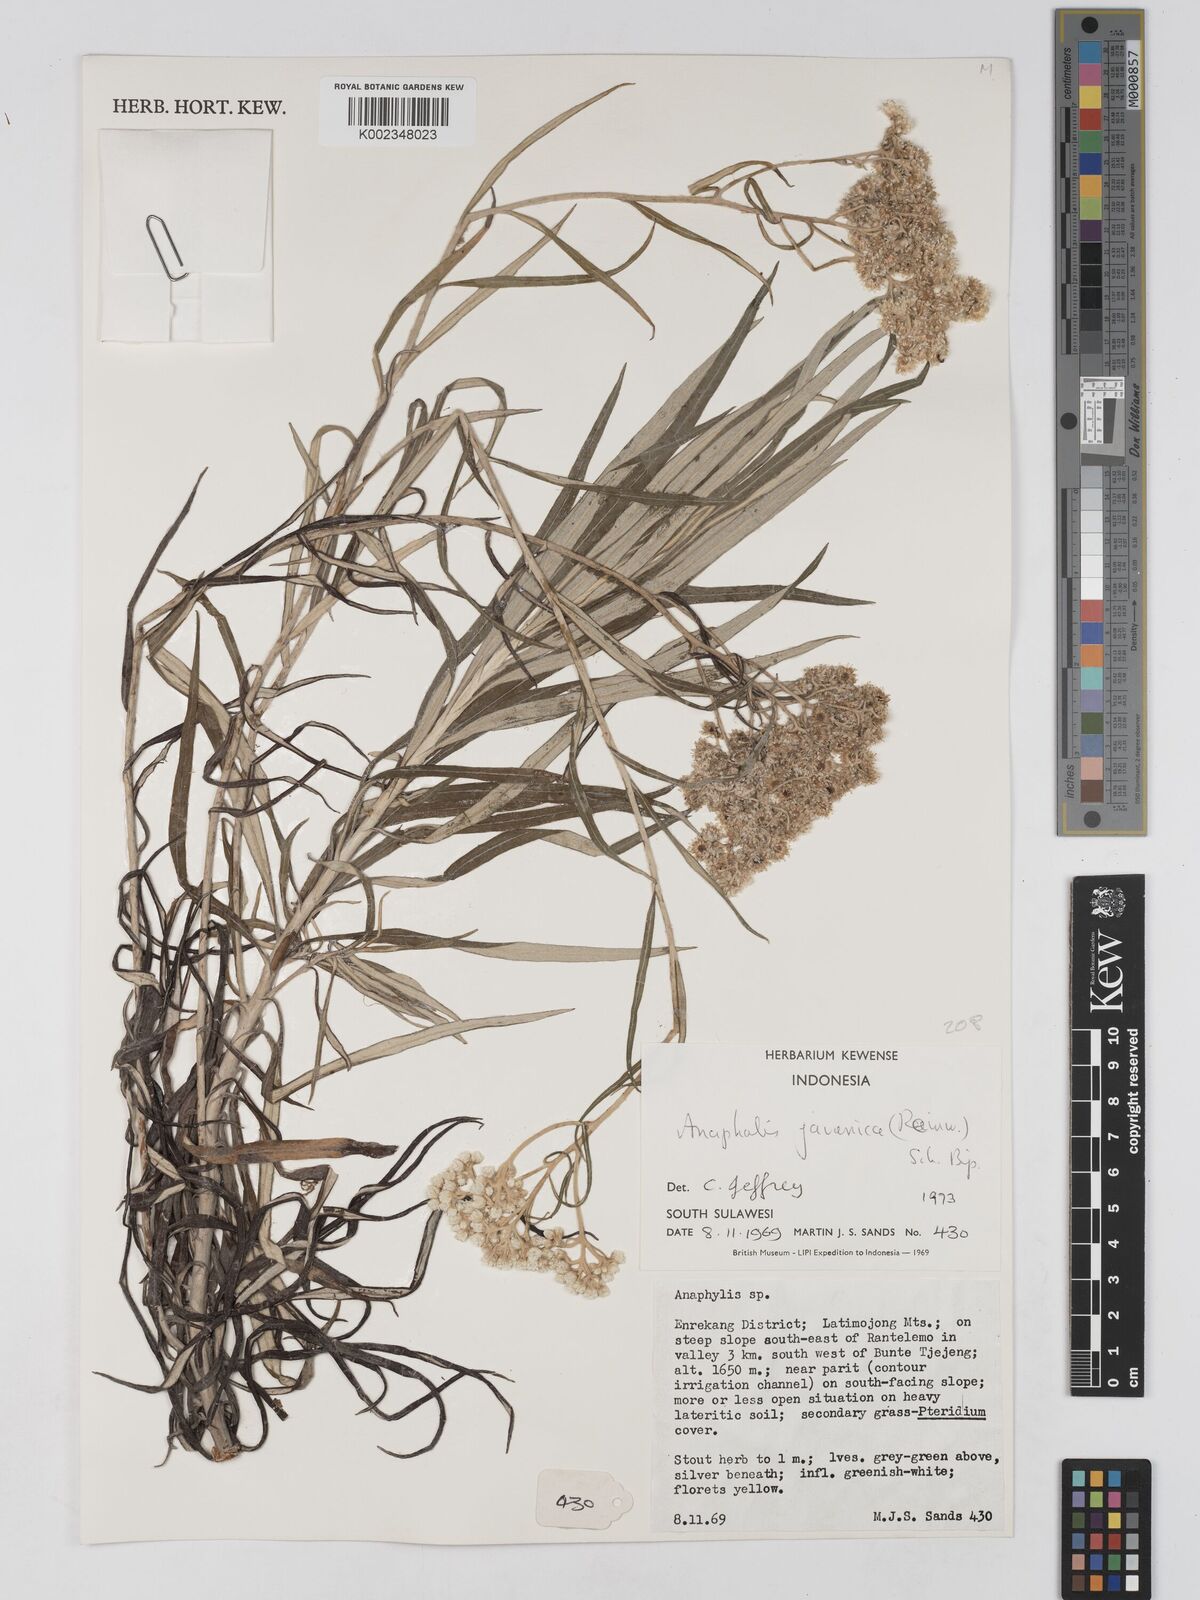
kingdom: Plantae
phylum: Tracheophyta
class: Magnoliopsida
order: Asterales
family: Asteraceae
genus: Anaphalis
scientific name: Anaphalis javanica
